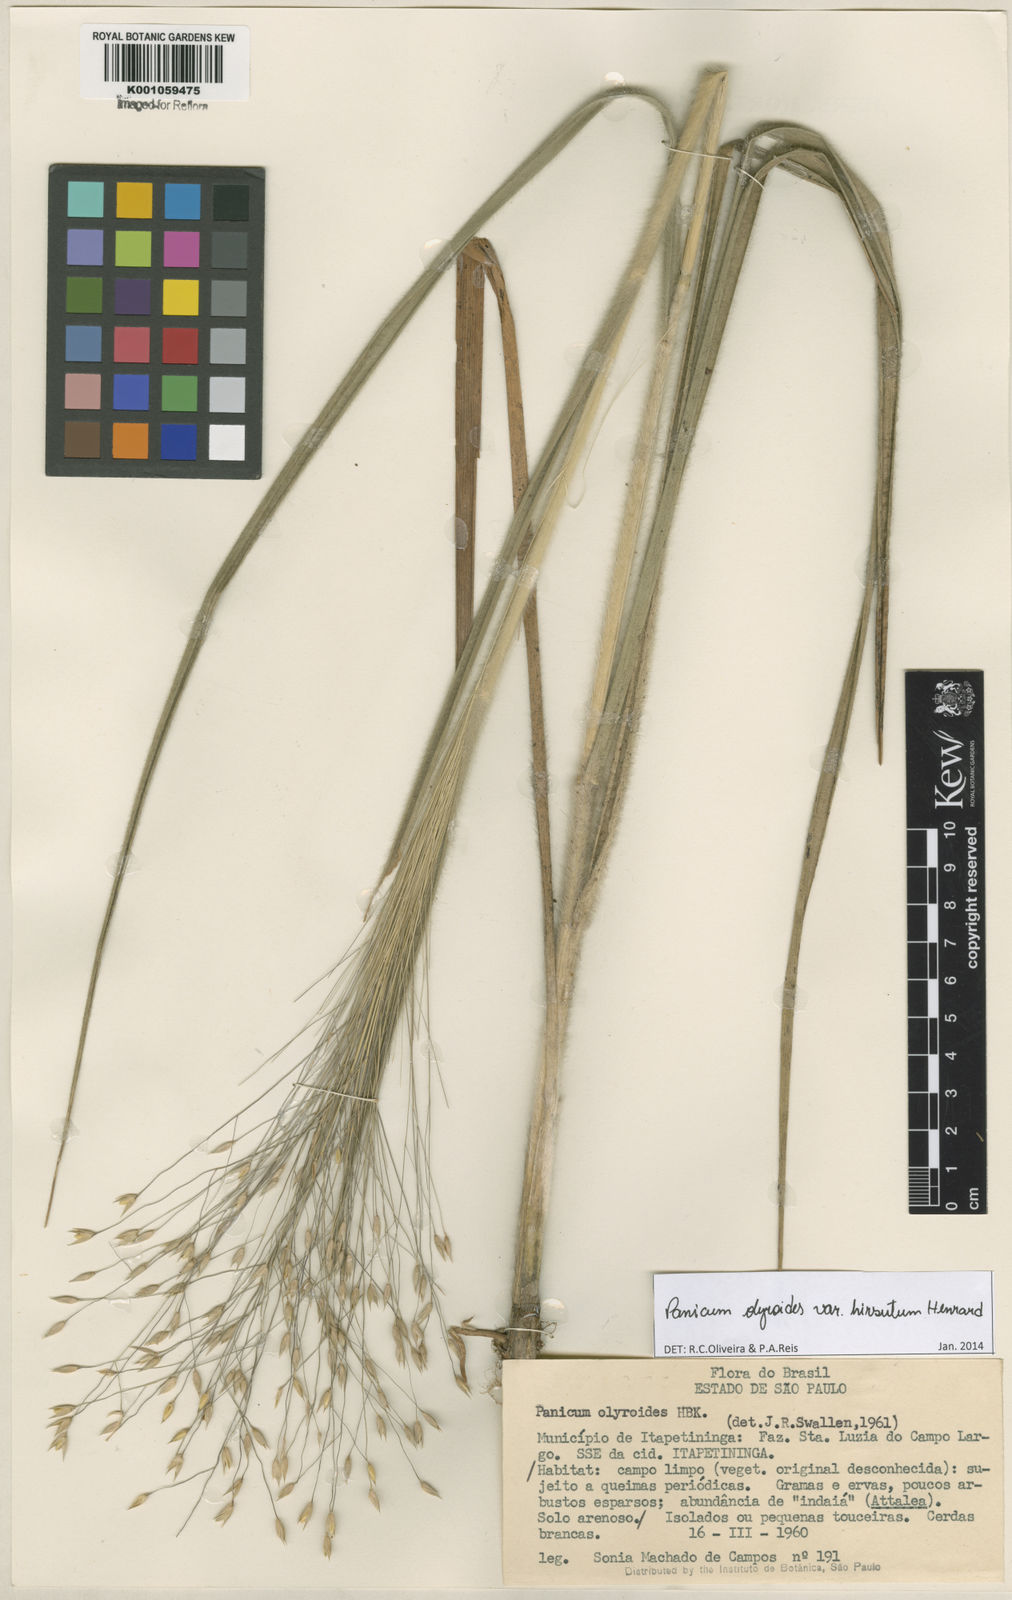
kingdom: Plantae
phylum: Tracheophyta
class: Liliopsida
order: Poales
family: Poaceae
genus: Panicum
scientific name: Panicum olyroides
